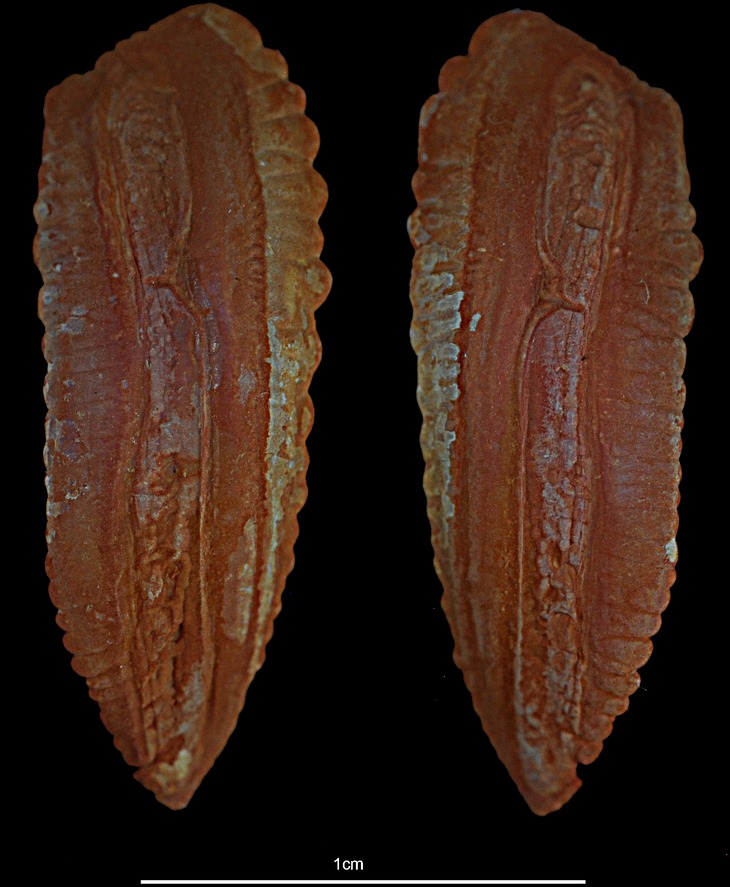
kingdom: Animalia
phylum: Chordata
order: Gadiformes
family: Gadidae
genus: Melanogrammus
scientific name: Melanogrammus aeglefinus
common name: Haddock
